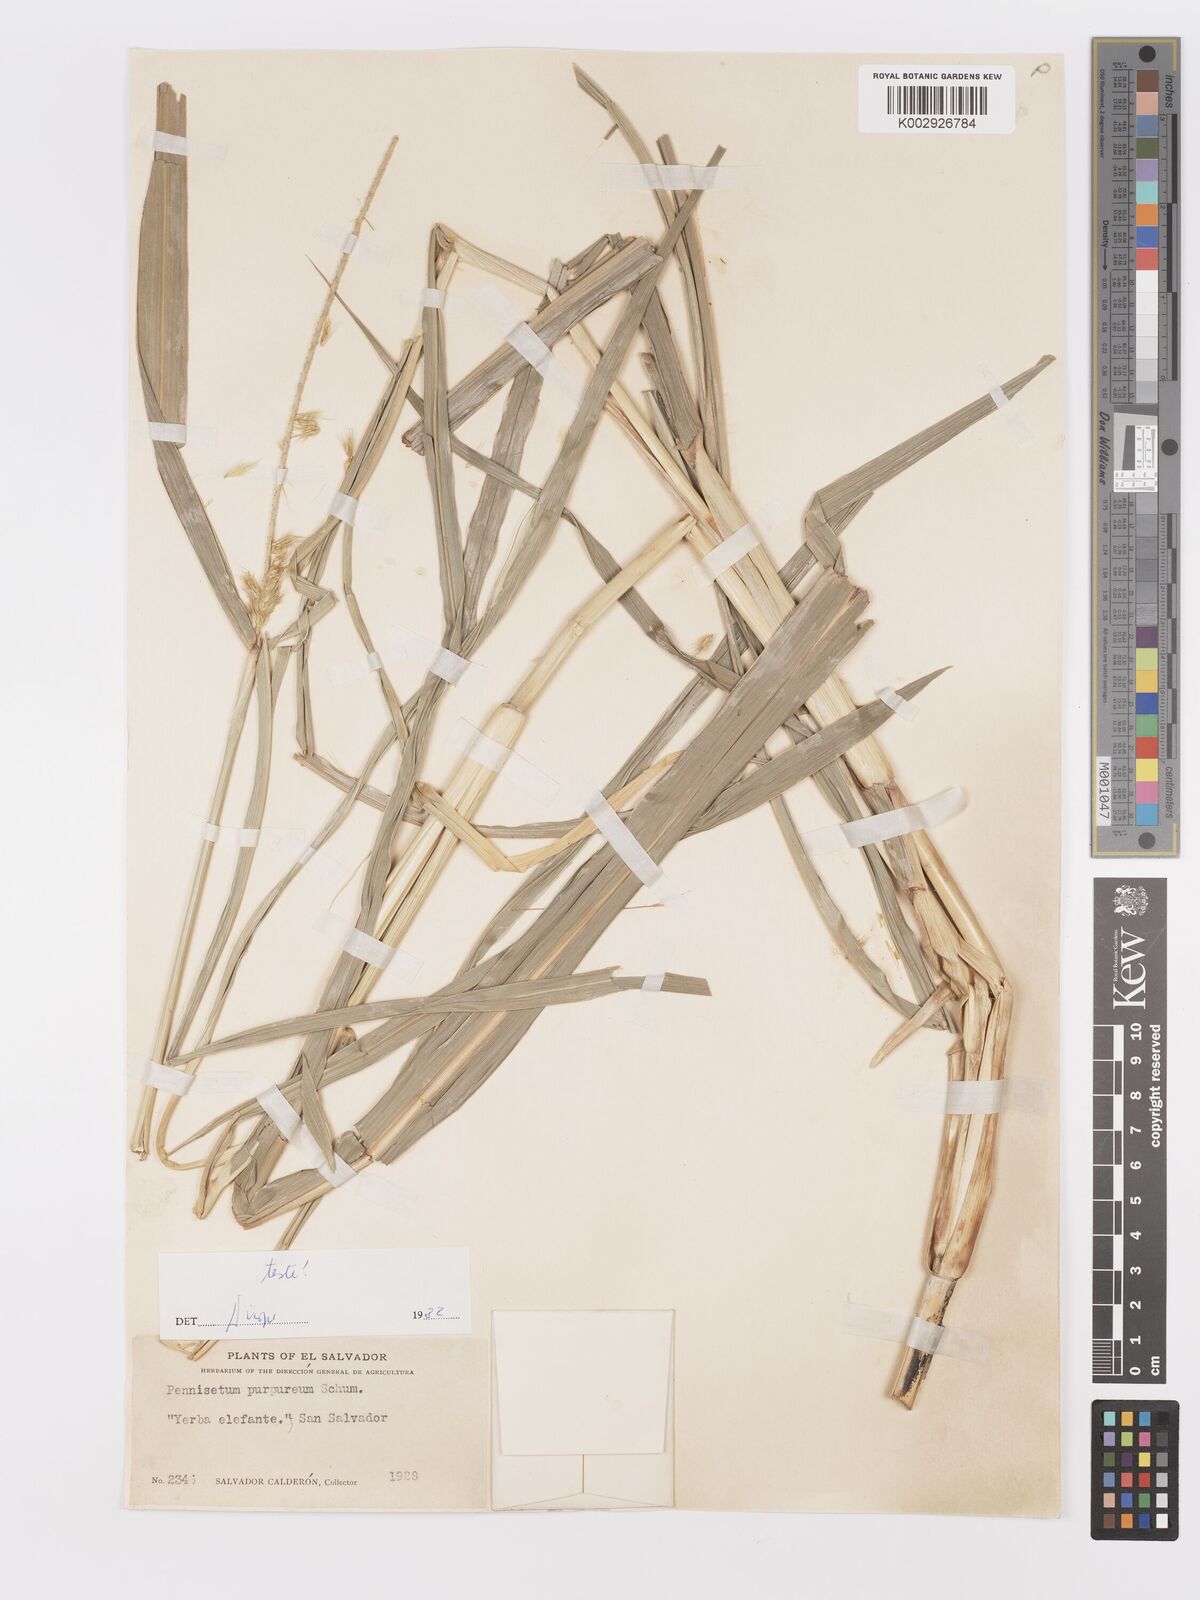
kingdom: Plantae
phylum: Tracheophyta
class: Liliopsida
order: Poales
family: Poaceae
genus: Cenchrus
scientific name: Cenchrus purpureus
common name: Elephant grass
